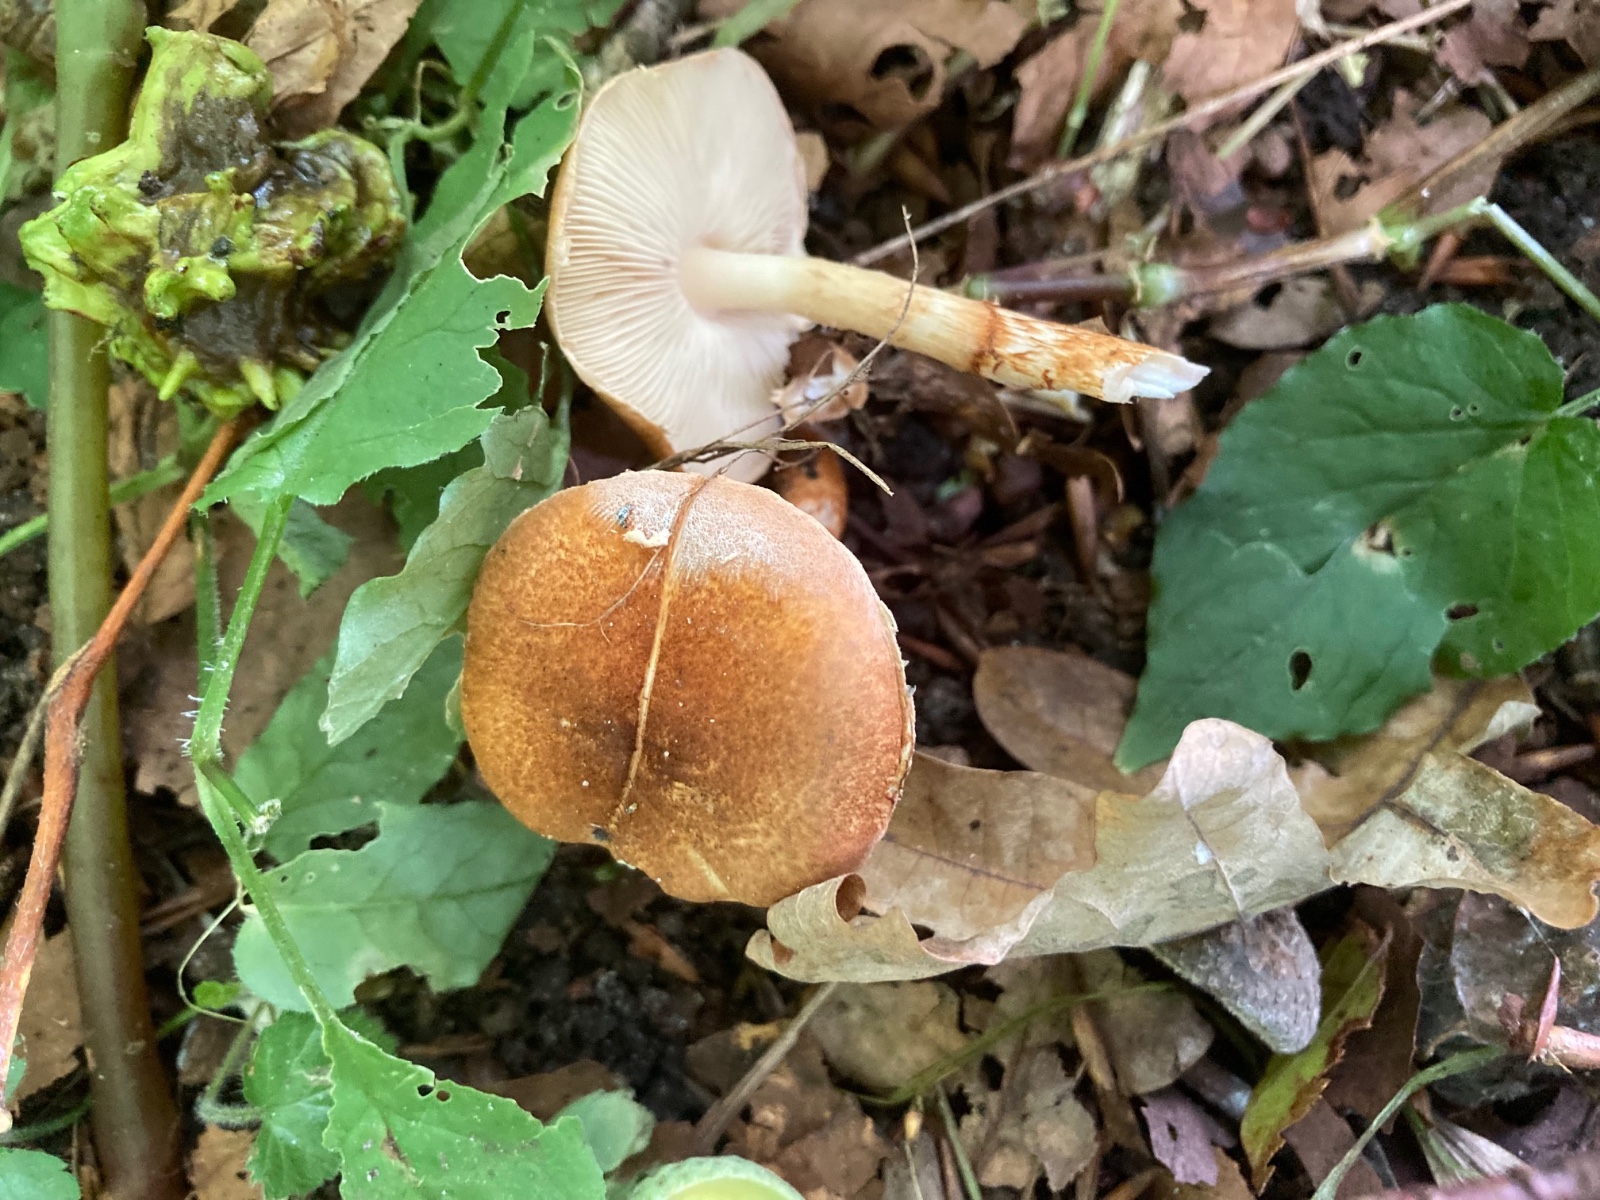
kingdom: Fungi
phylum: Basidiomycota
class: Agaricomycetes
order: Agaricales
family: Agaricaceae
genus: Leucocoprinus
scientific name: Leucocoprinus straminellus
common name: rustbrun parasolhat
